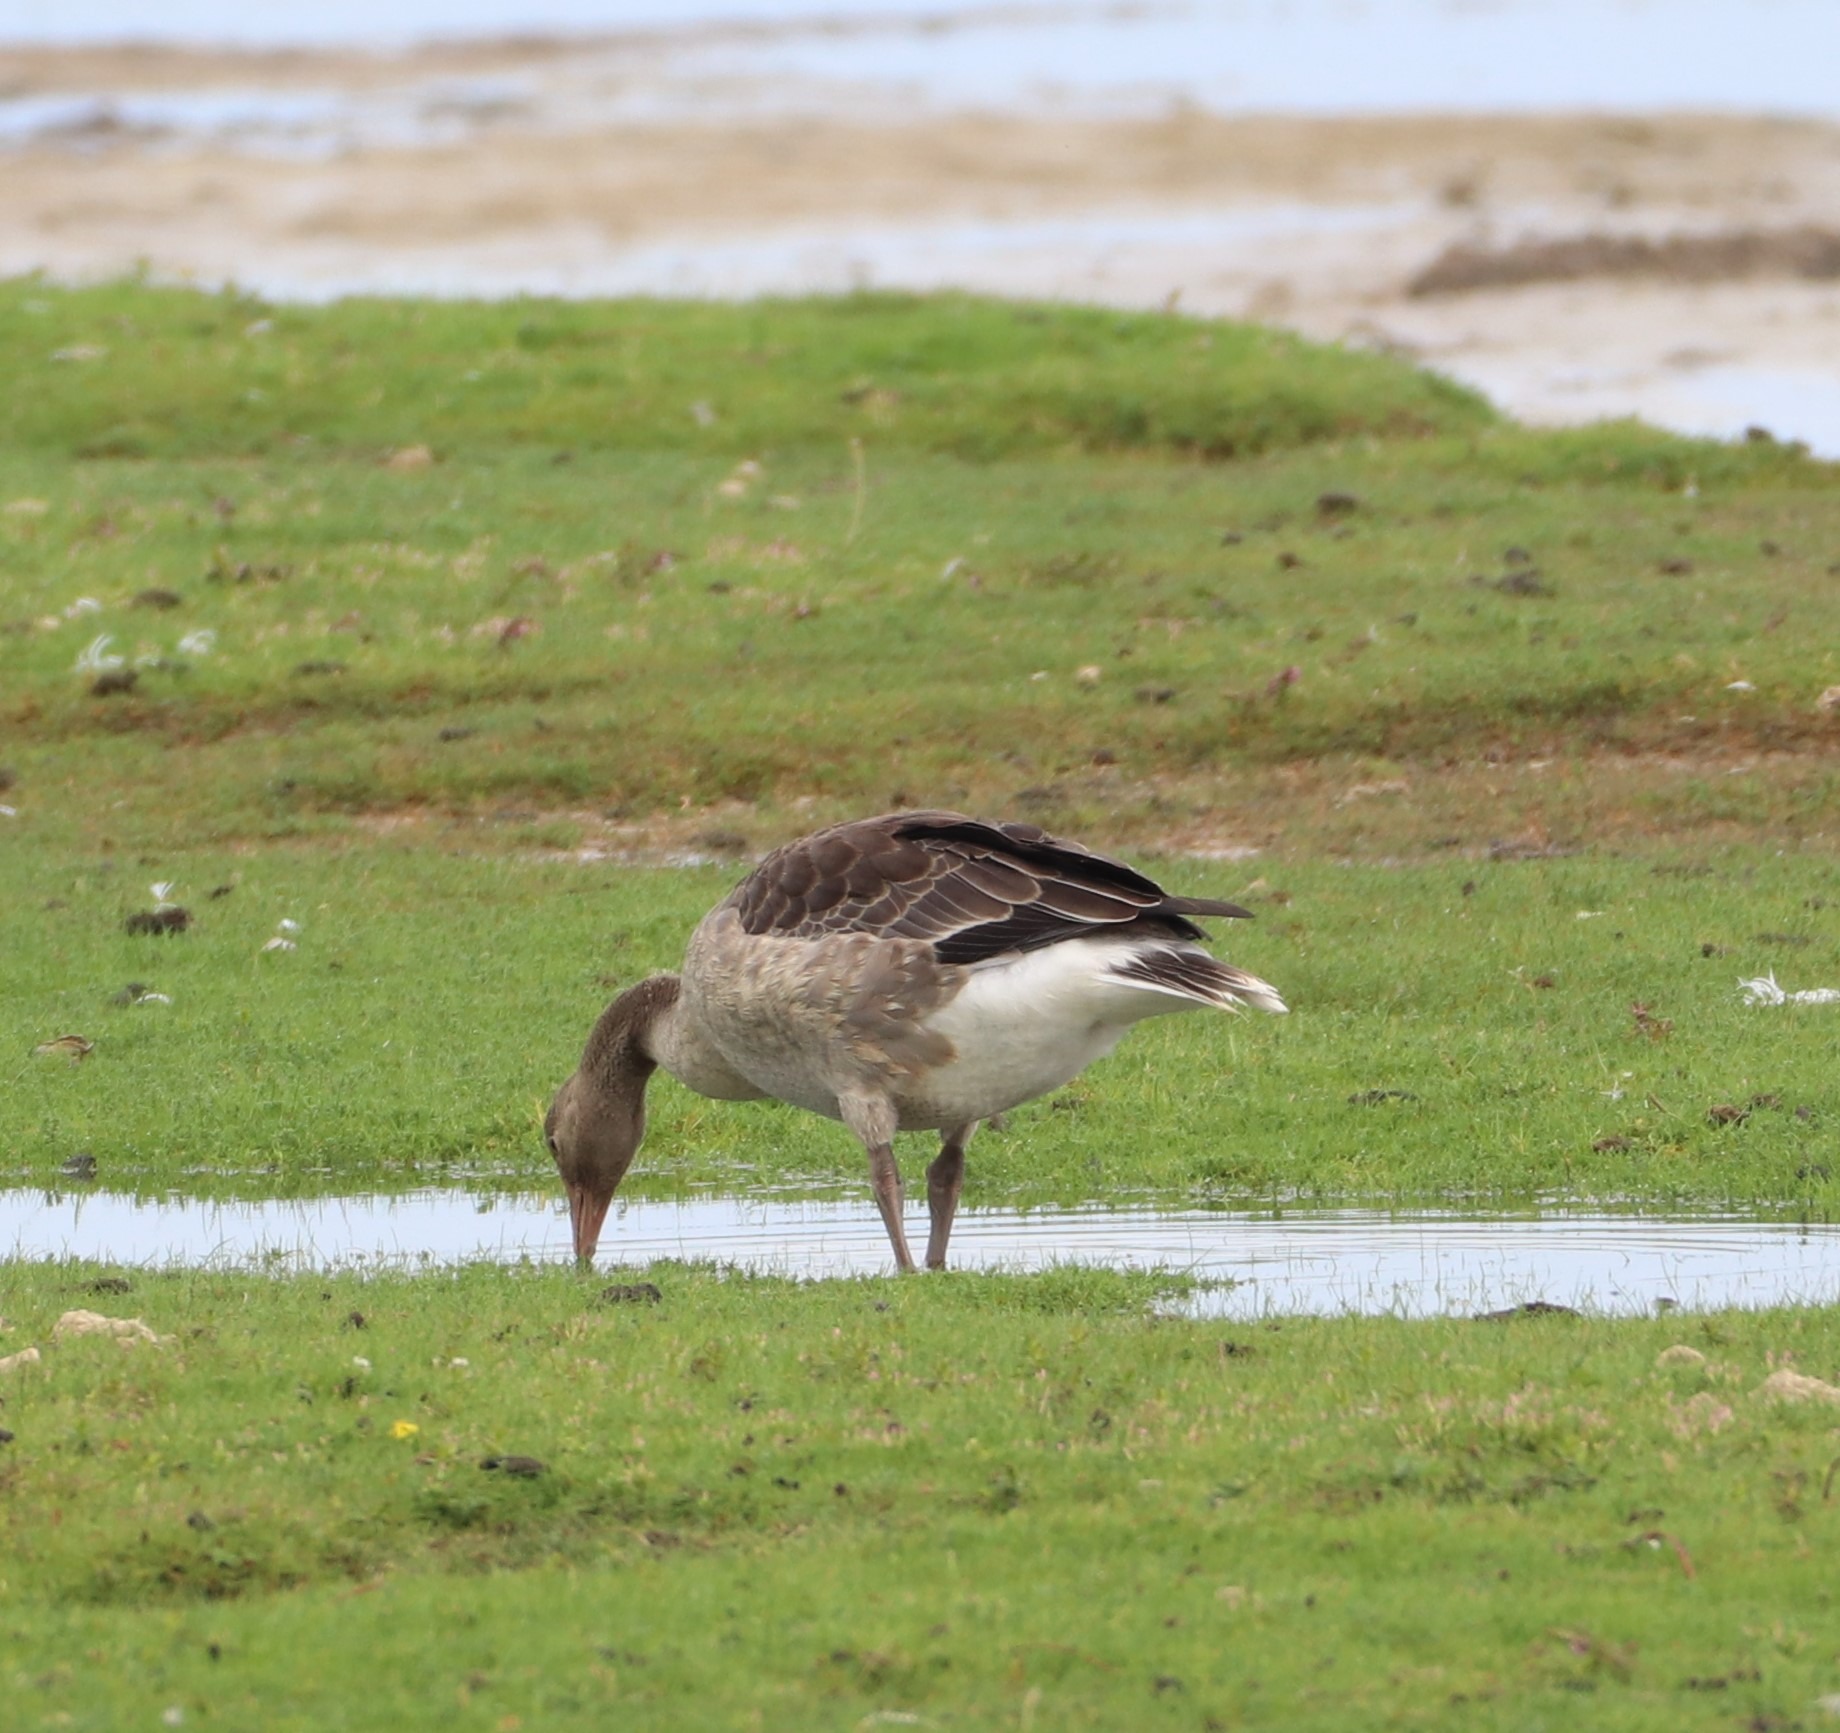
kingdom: Animalia
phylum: Chordata
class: Aves
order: Anseriformes
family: Anatidae
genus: Anser
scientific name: Anser anser
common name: Grågås
